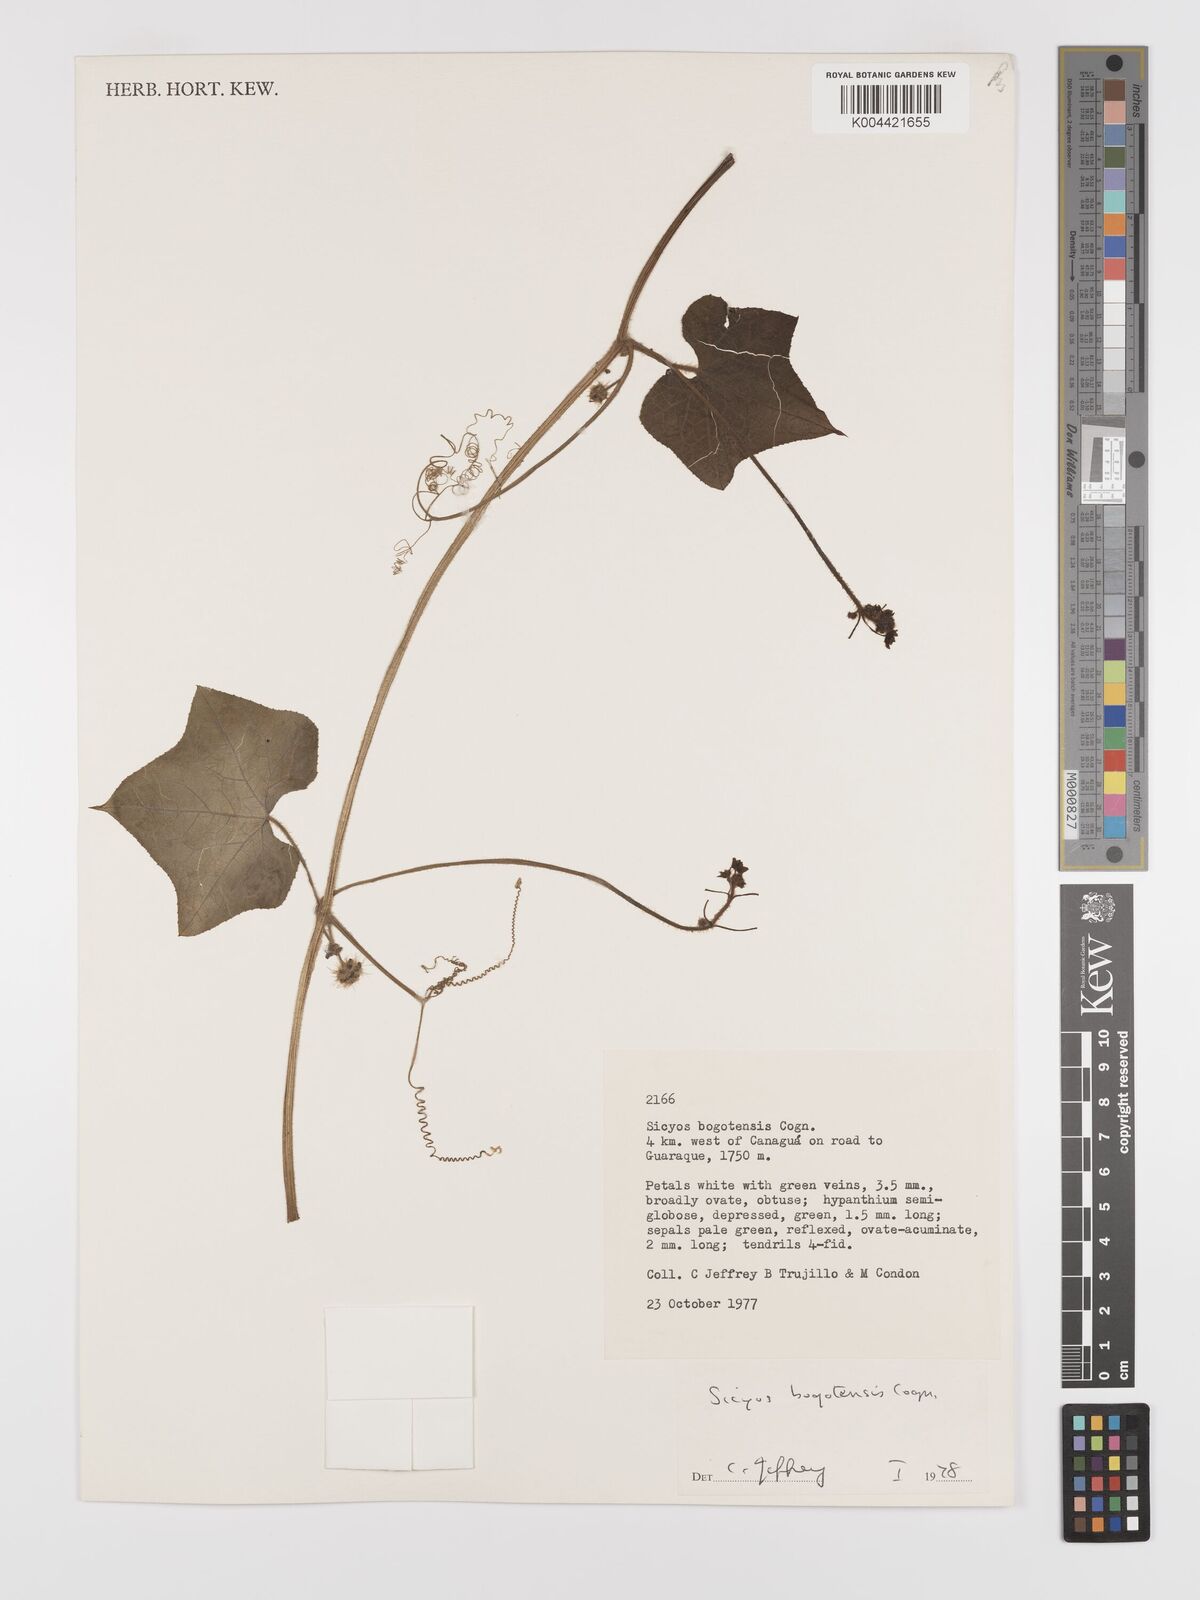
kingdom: Plantae
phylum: Tracheophyta
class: Magnoliopsida
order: Cucurbitales
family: Cucurbitaceae
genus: Sicyos
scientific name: Sicyos bogotensis
